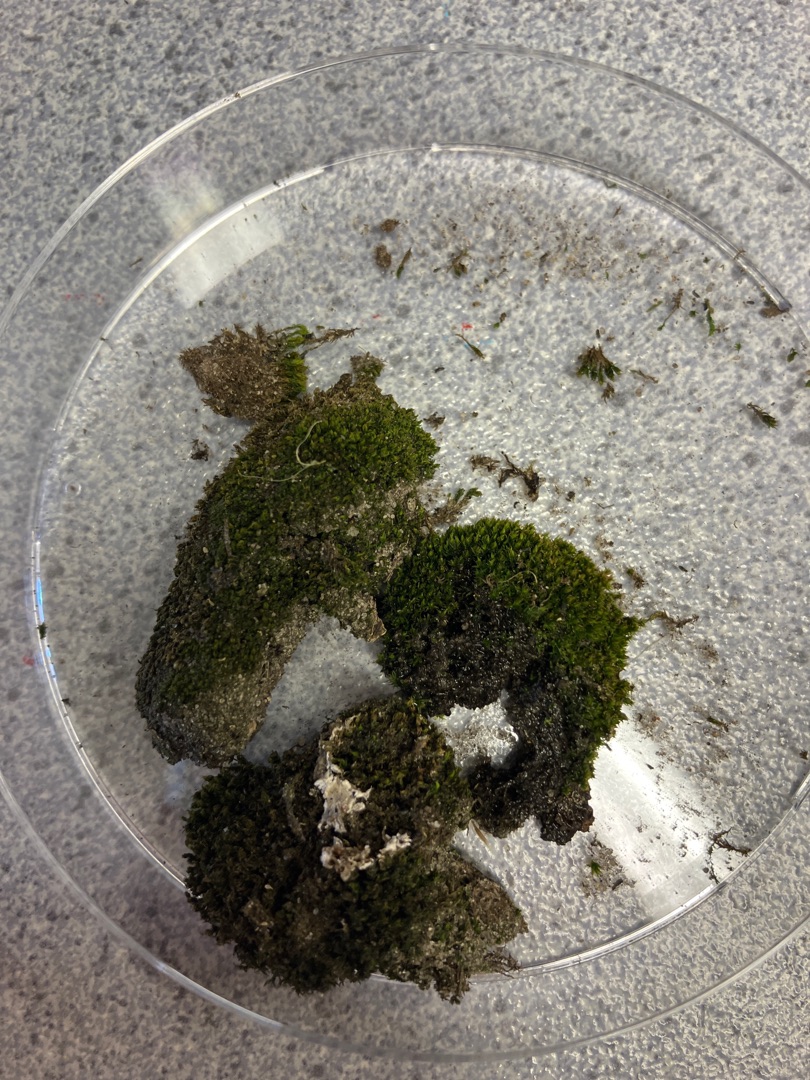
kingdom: Plantae
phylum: Bryophyta
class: Bryopsida
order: Dicranales
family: Ditrichaceae
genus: Ceratodon
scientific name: Ceratodon purpureus
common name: Rød horntand
